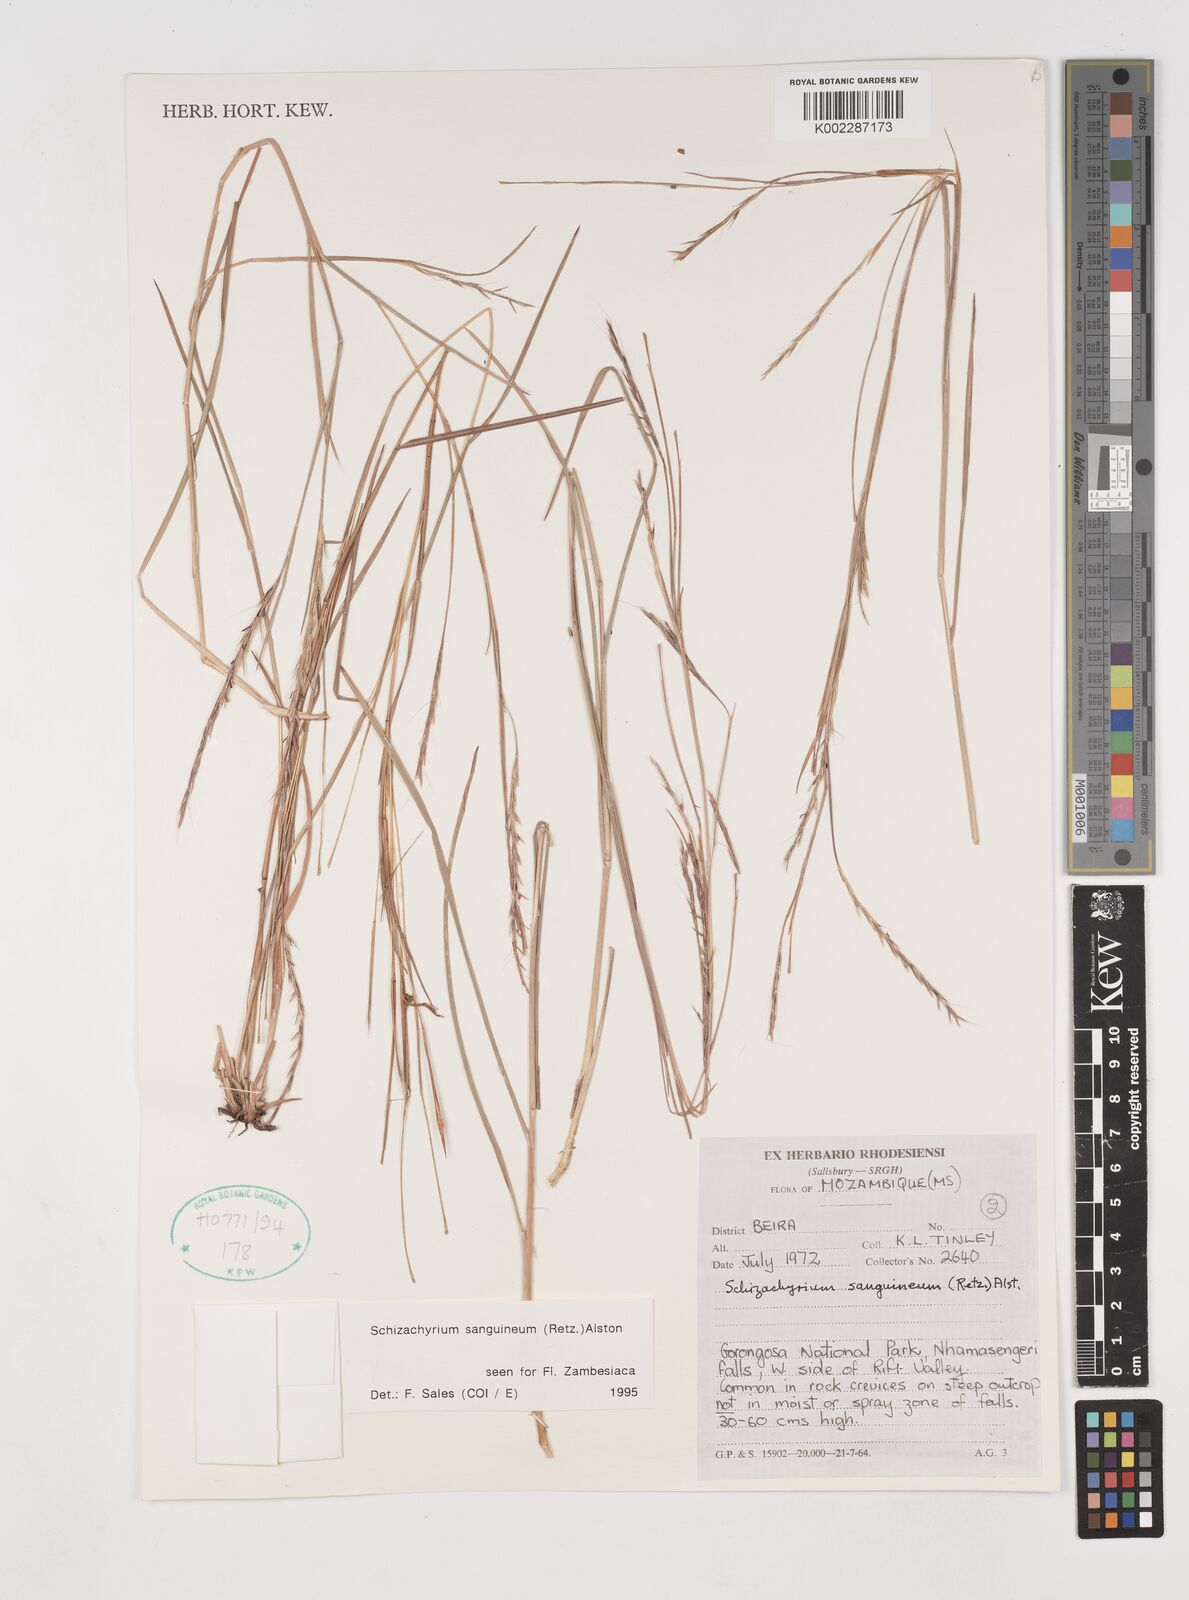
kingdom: Plantae
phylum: Tracheophyta
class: Liliopsida
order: Poales
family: Poaceae
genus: Schizachyrium
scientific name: Schizachyrium sanguineum
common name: Crimson bluestem
